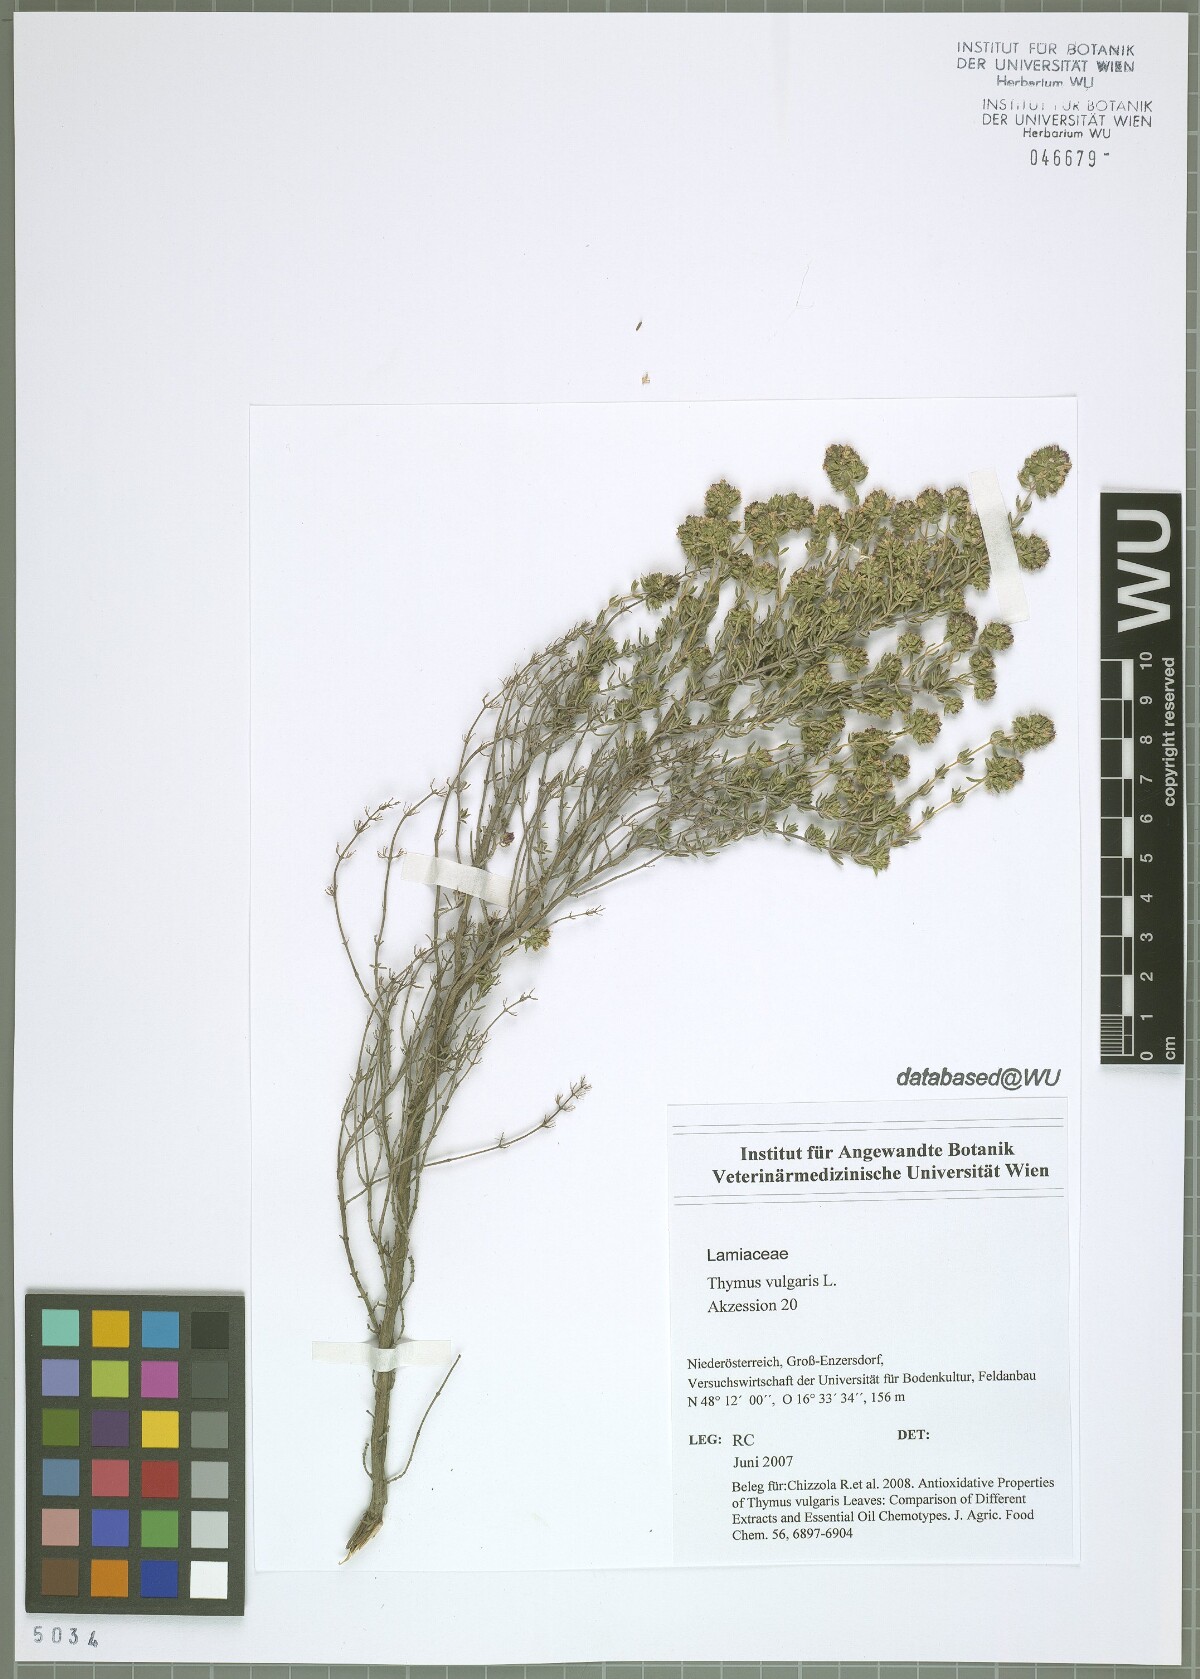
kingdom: Plantae
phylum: Tracheophyta
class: Magnoliopsida
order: Lamiales
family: Lamiaceae
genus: Thymus
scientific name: Thymus vulgaris
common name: Garden thyme
